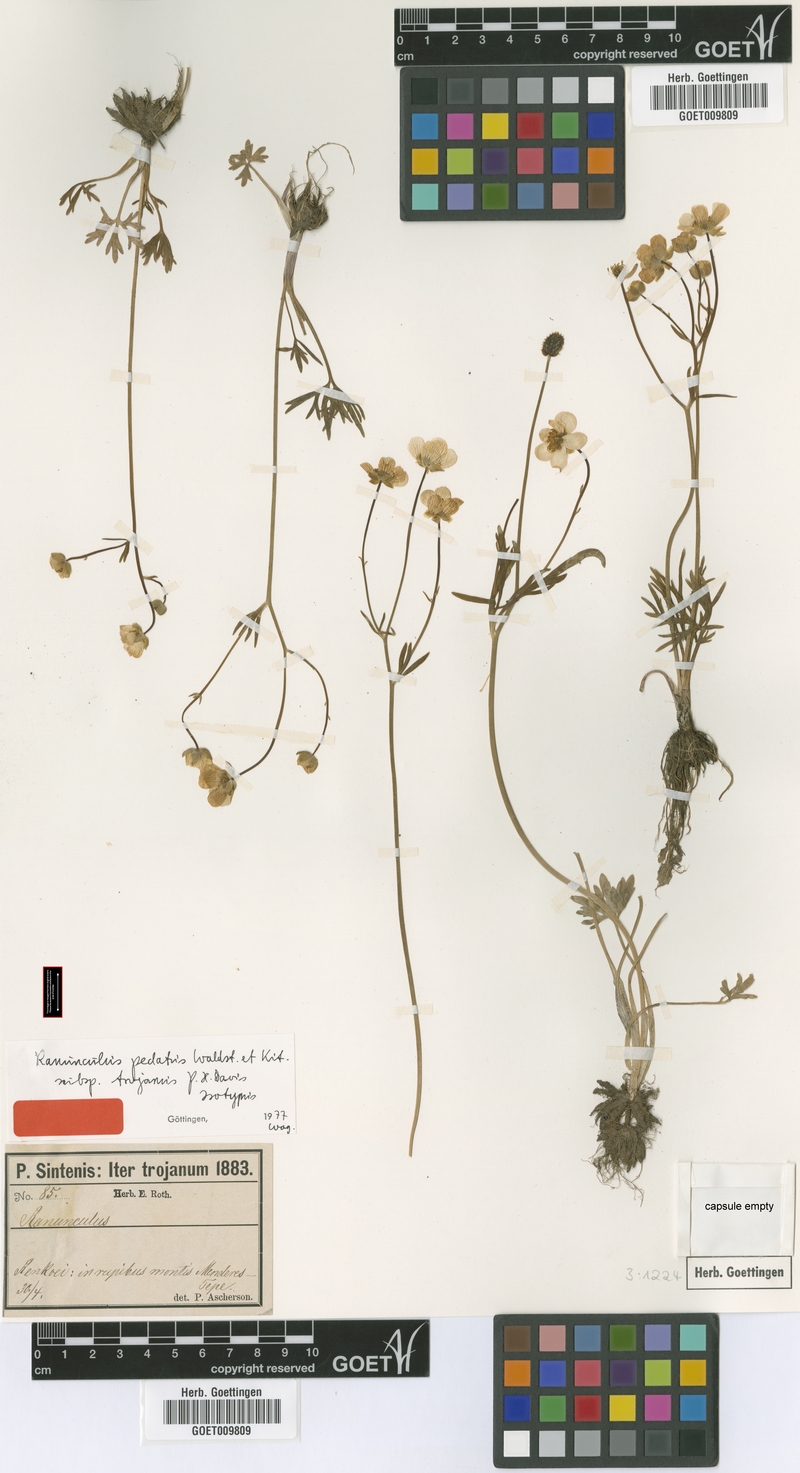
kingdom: Plantae
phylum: Tracheophyta
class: Magnoliopsida
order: Ranunculales
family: Ranunculaceae
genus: Ranunculus
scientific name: Ranunculus pedatus
